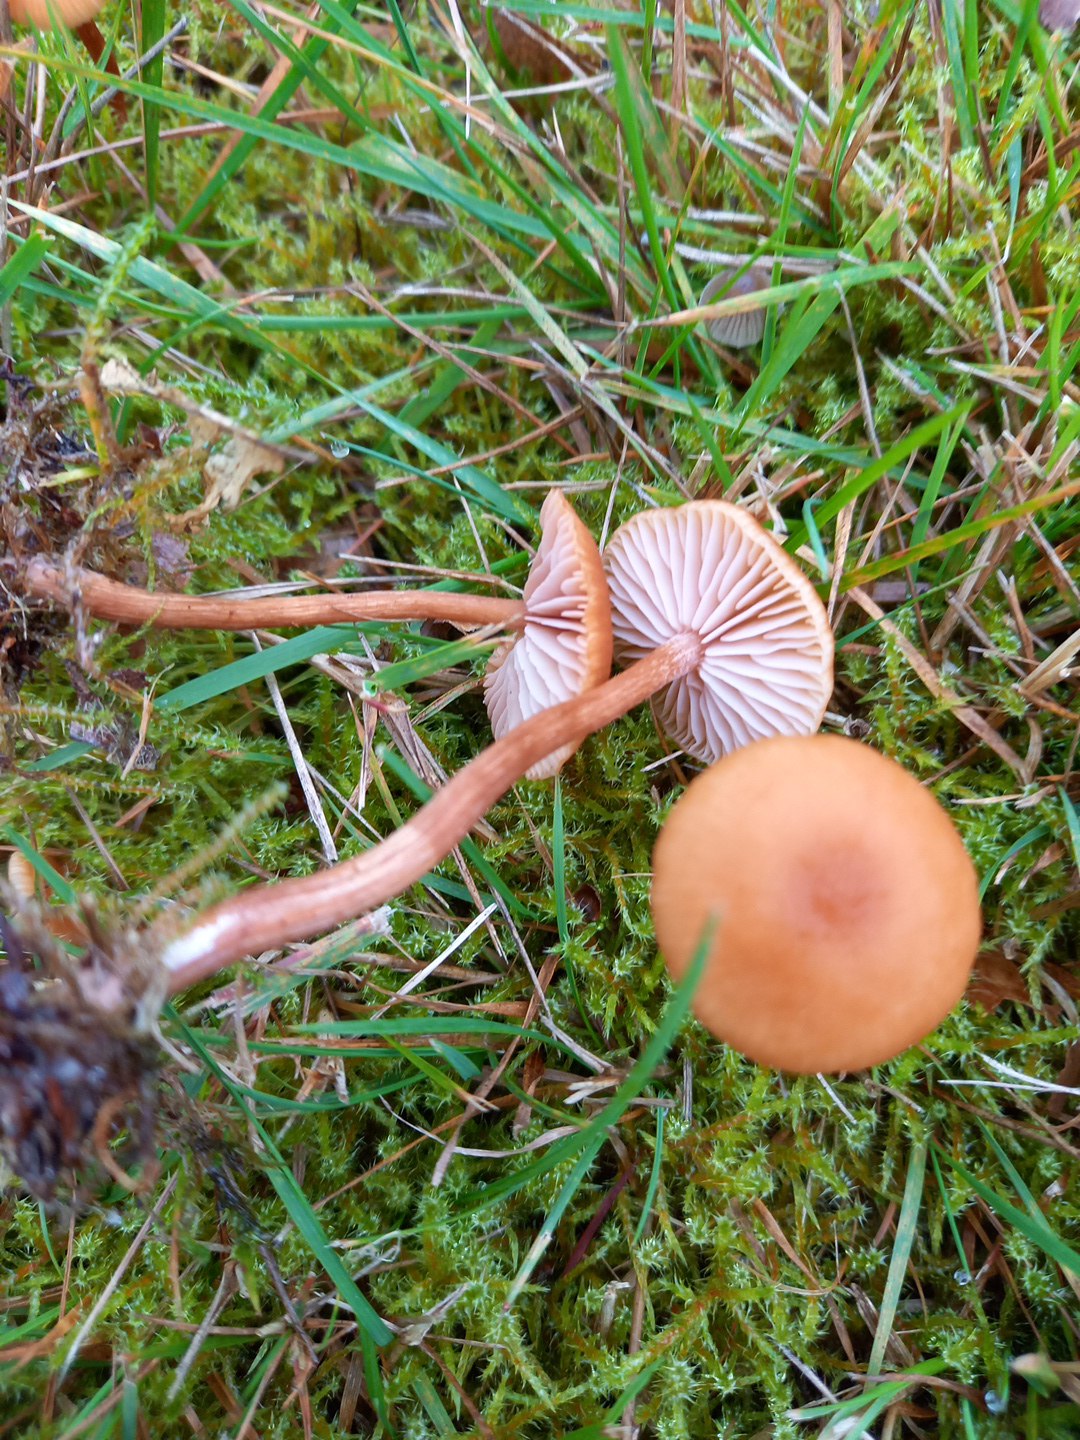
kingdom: Fungi
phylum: Basidiomycota
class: Agaricomycetes
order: Agaricales
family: Hydnangiaceae
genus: Laccaria
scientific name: Laccaria laccata
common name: rød ametysthat
